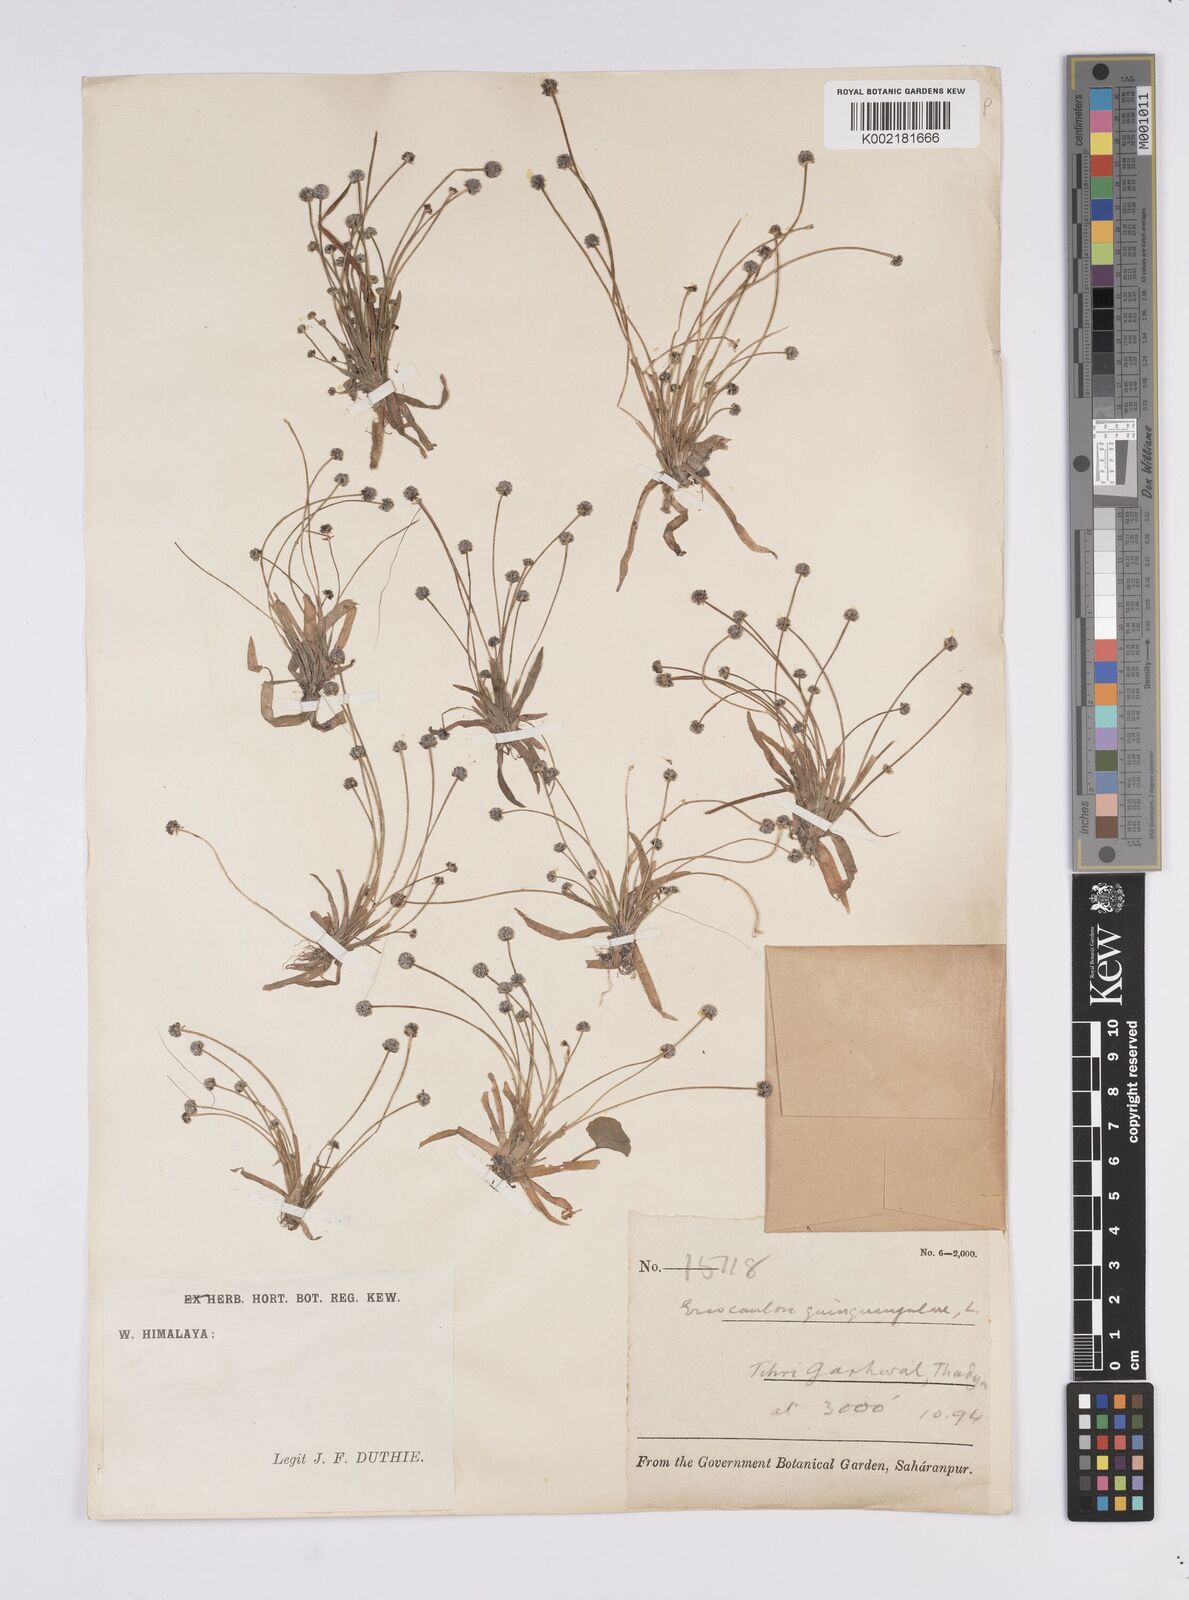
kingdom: Plantae
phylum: Tracheophyta
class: Liliopsida
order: Poales
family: Eriocaulaceae
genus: Eriocaulon
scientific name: Eriocaulon quinquangulare
